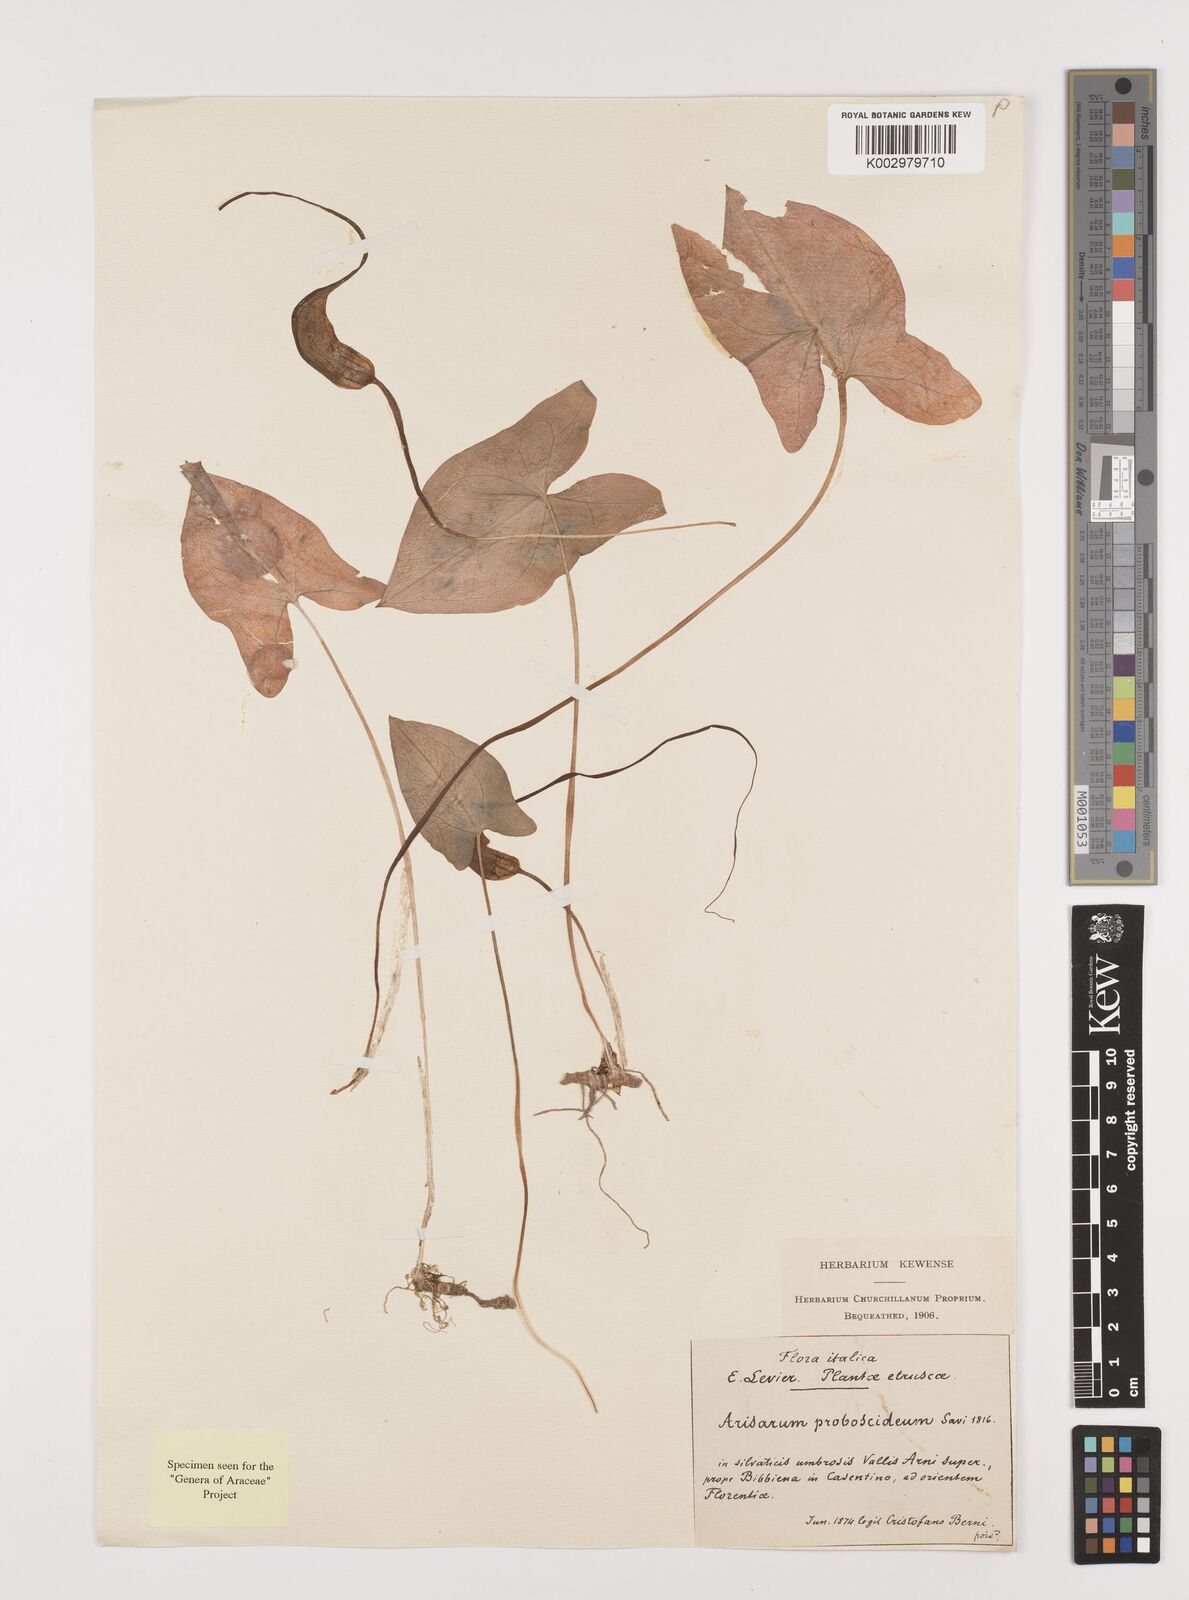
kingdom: Plantae
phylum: Tracheophyta
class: Liliopsida
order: Alismatales
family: Araceae
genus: Arisarum
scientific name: Arisarum proboscideum
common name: Mousetailplant
